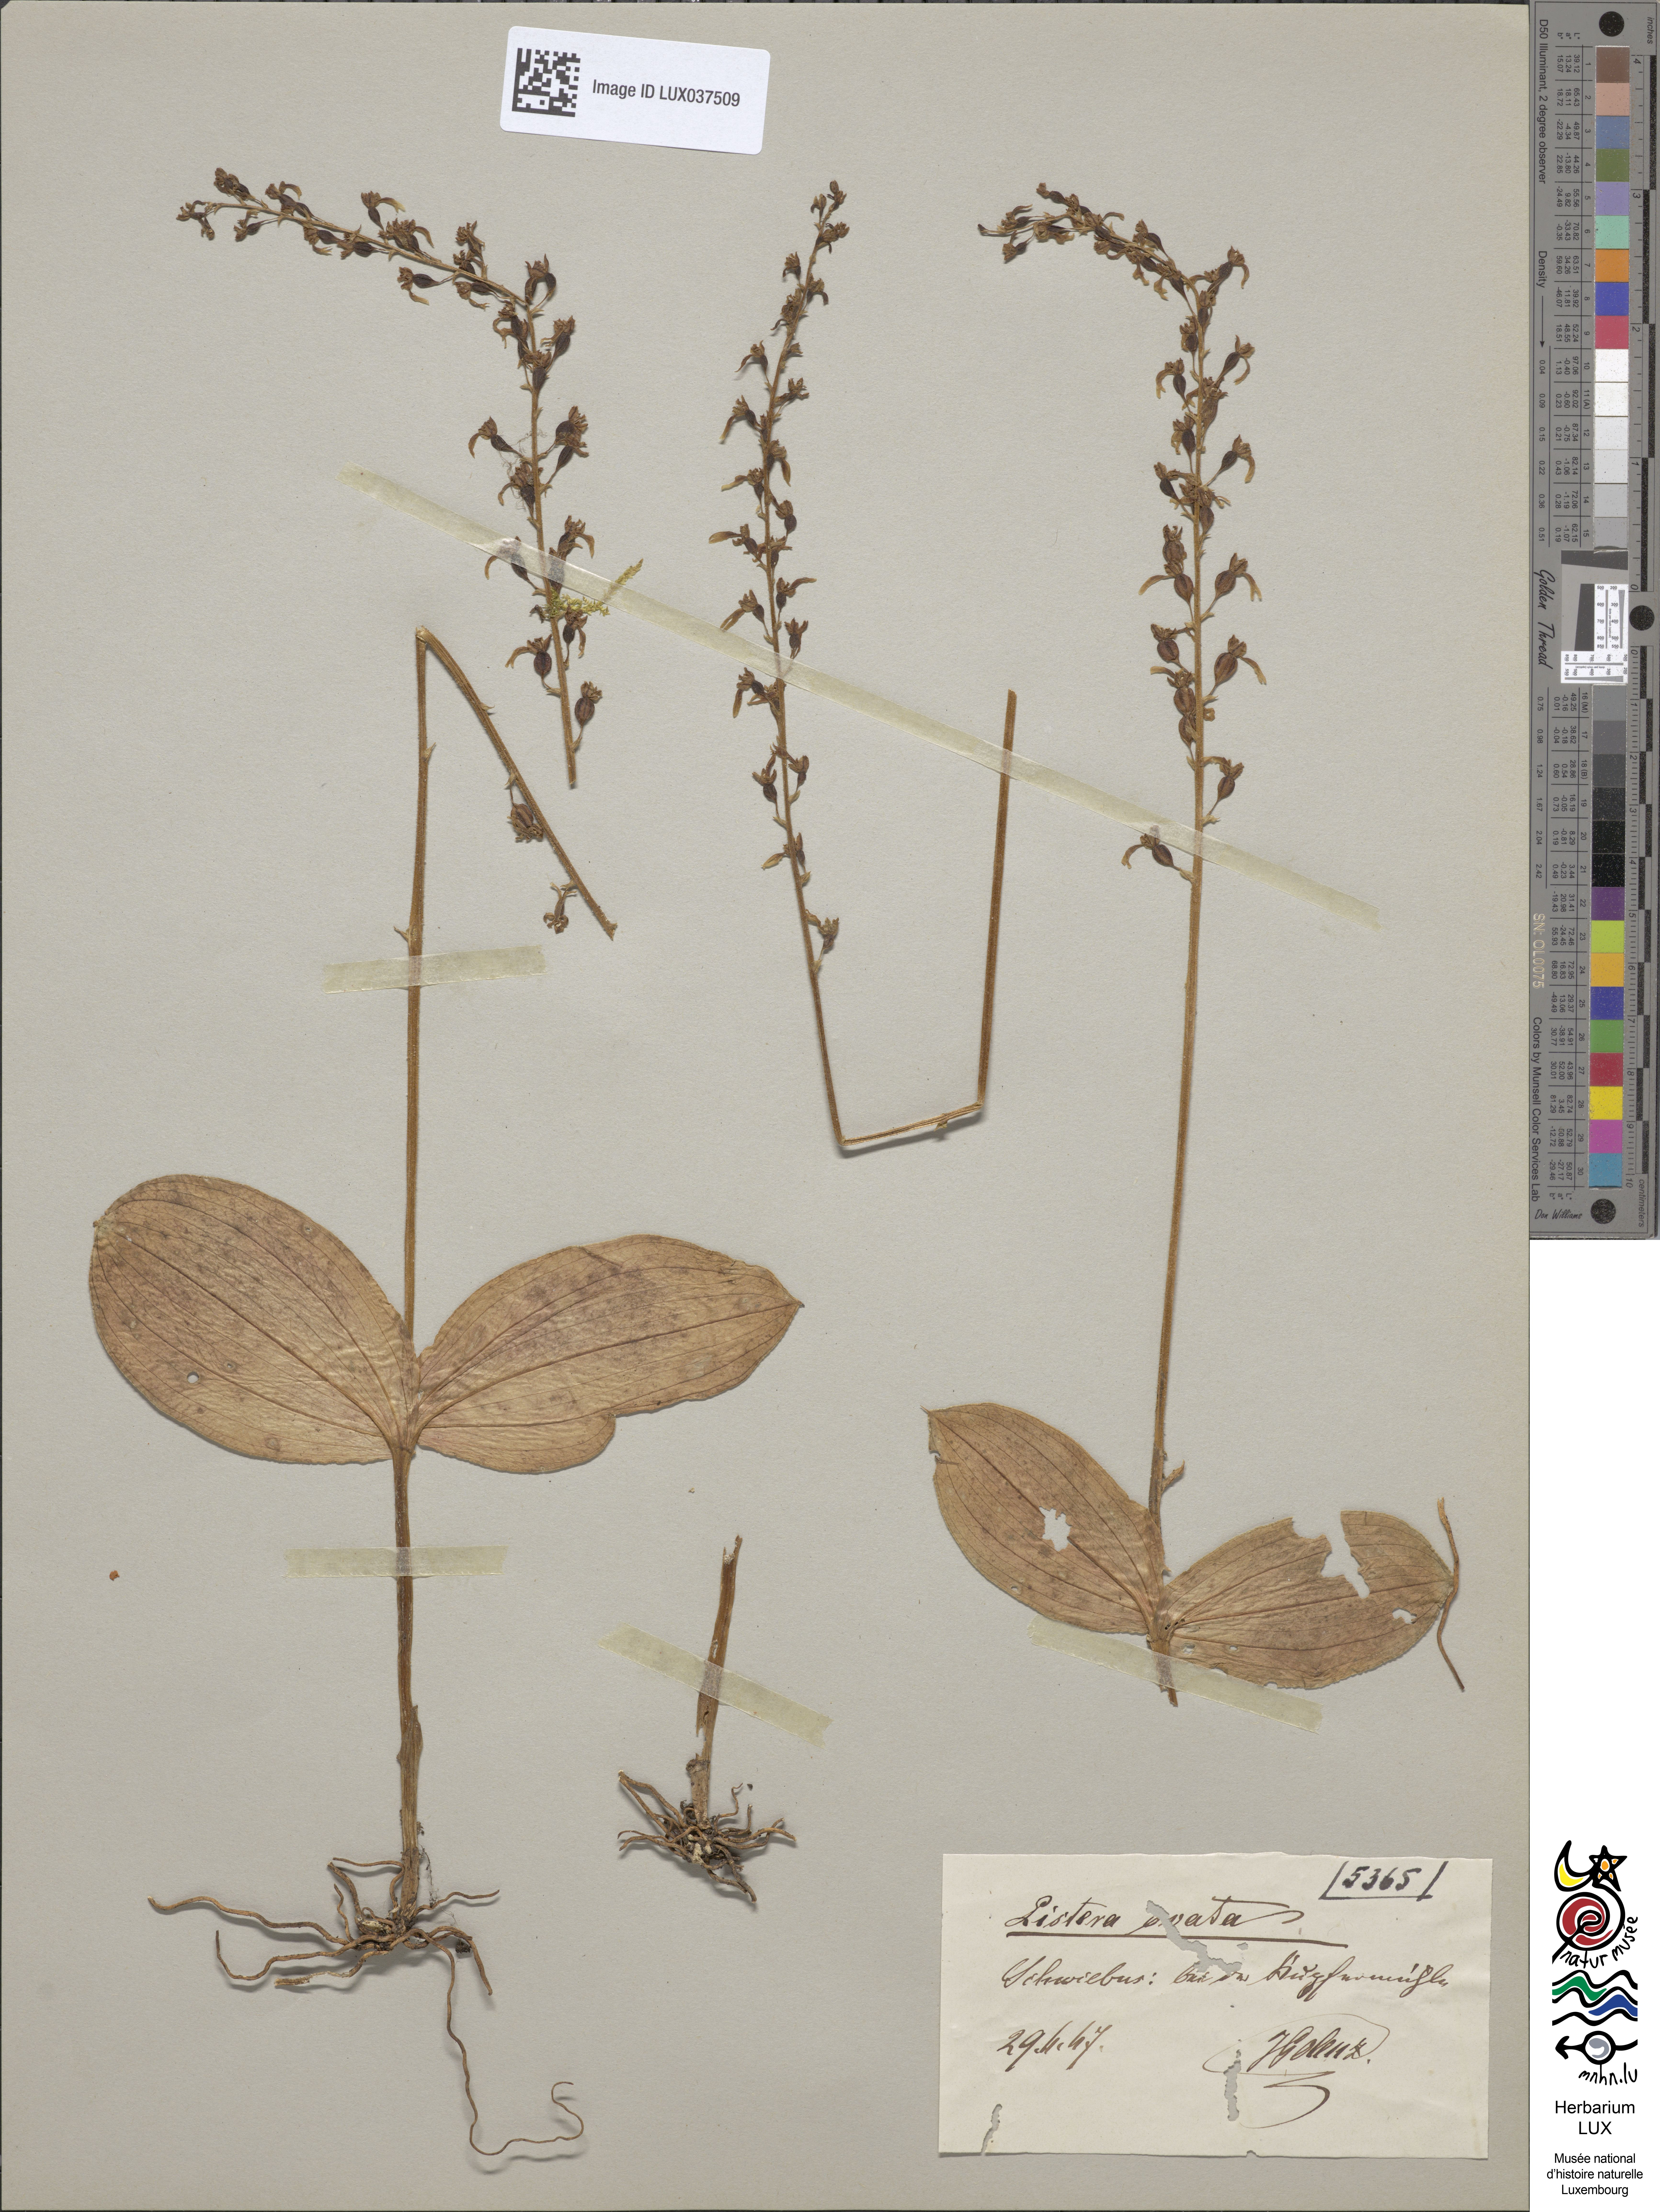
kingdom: Plantae
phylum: Tracheophyta
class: Liliopsida
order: Asparagales
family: Orchidaceae
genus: Neottia
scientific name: Neottia ovata
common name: Common twayblade
